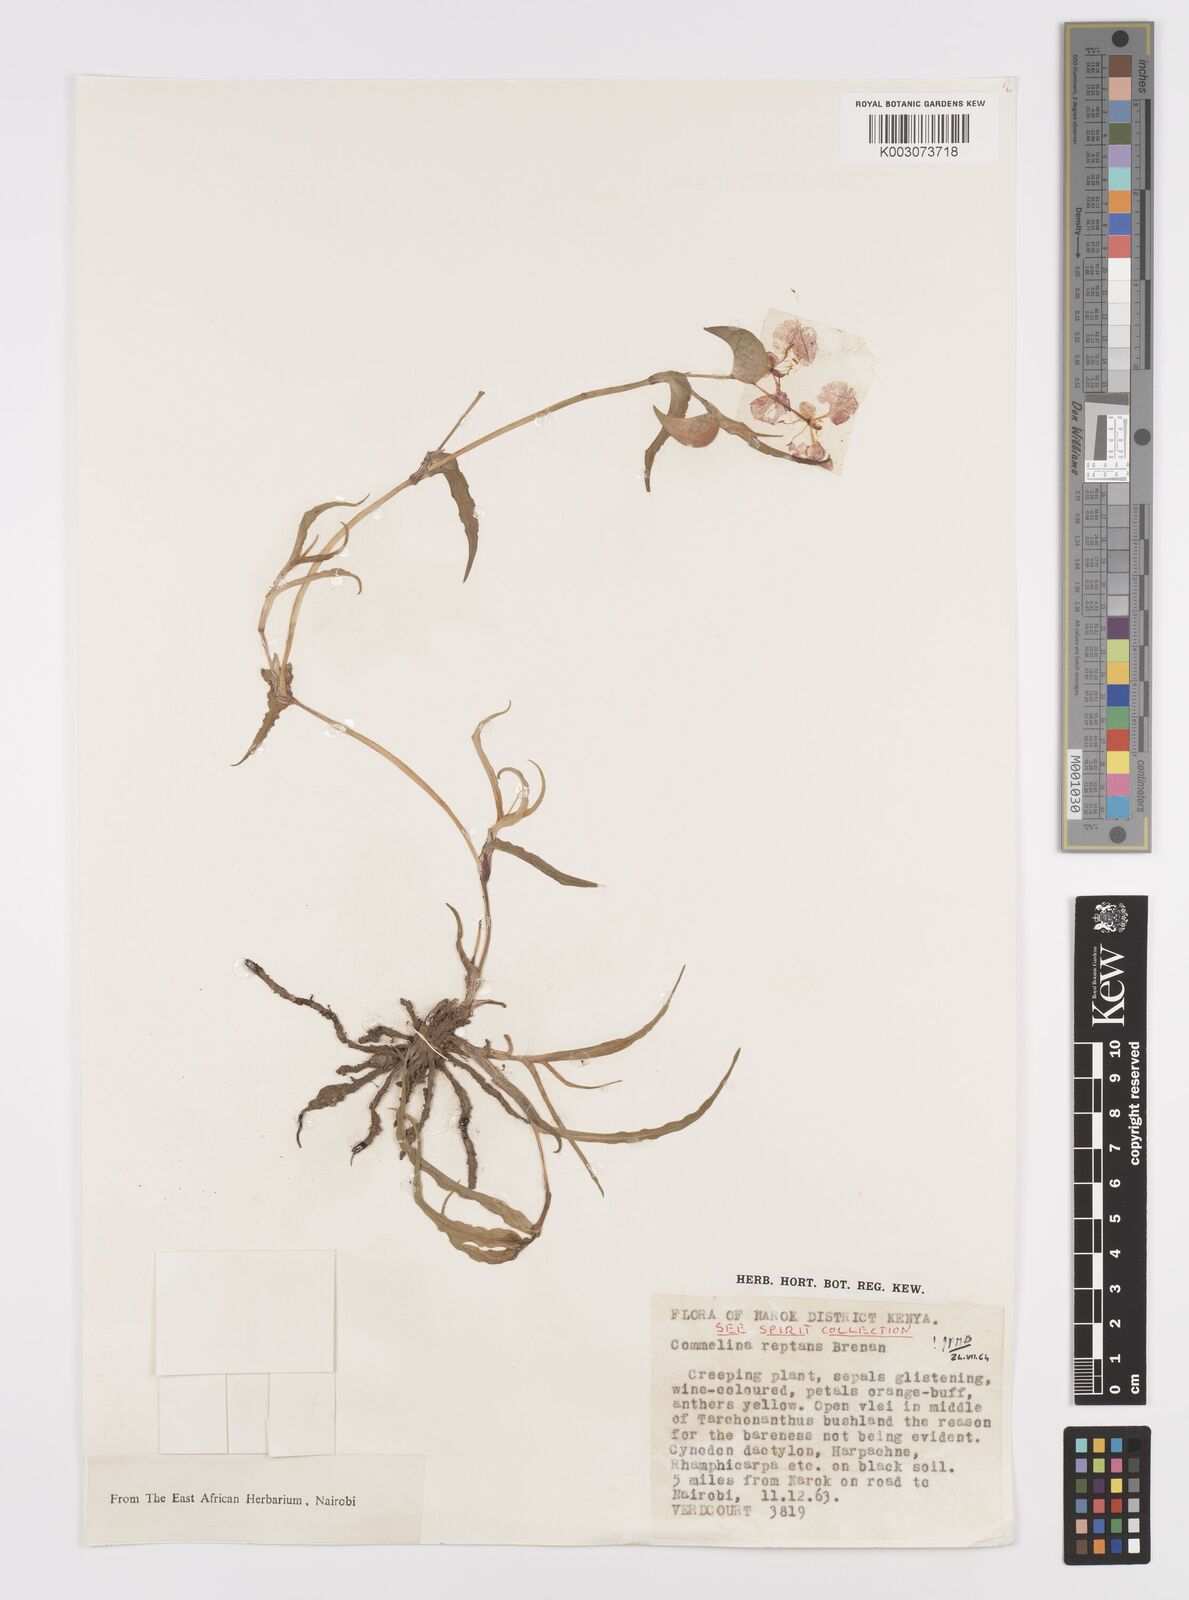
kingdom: Plantae
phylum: Tracheophyta
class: Liliopsida
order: Commelinales
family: Commelinaceae
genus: Commelina
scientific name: Commelina reptans
